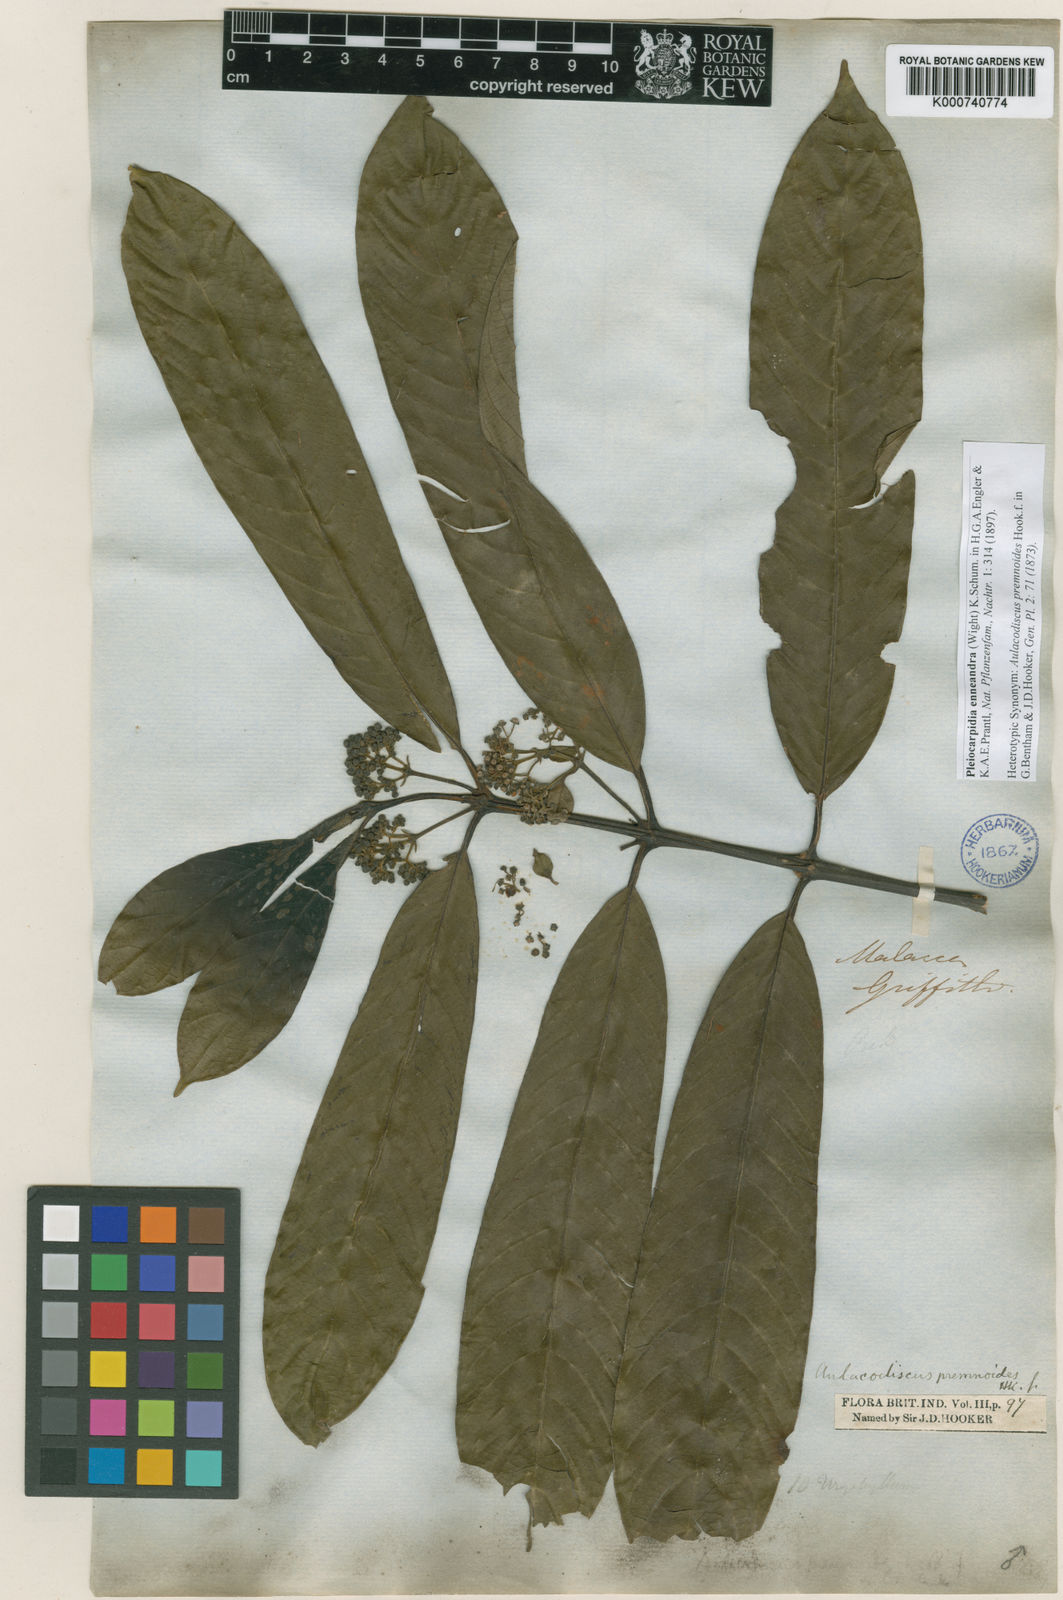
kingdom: Plantae
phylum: Tracheophyta
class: Magnoliopsida
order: Gentianales
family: Rubiaceae
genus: Urophyllum
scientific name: Urophyllum enneandrum
